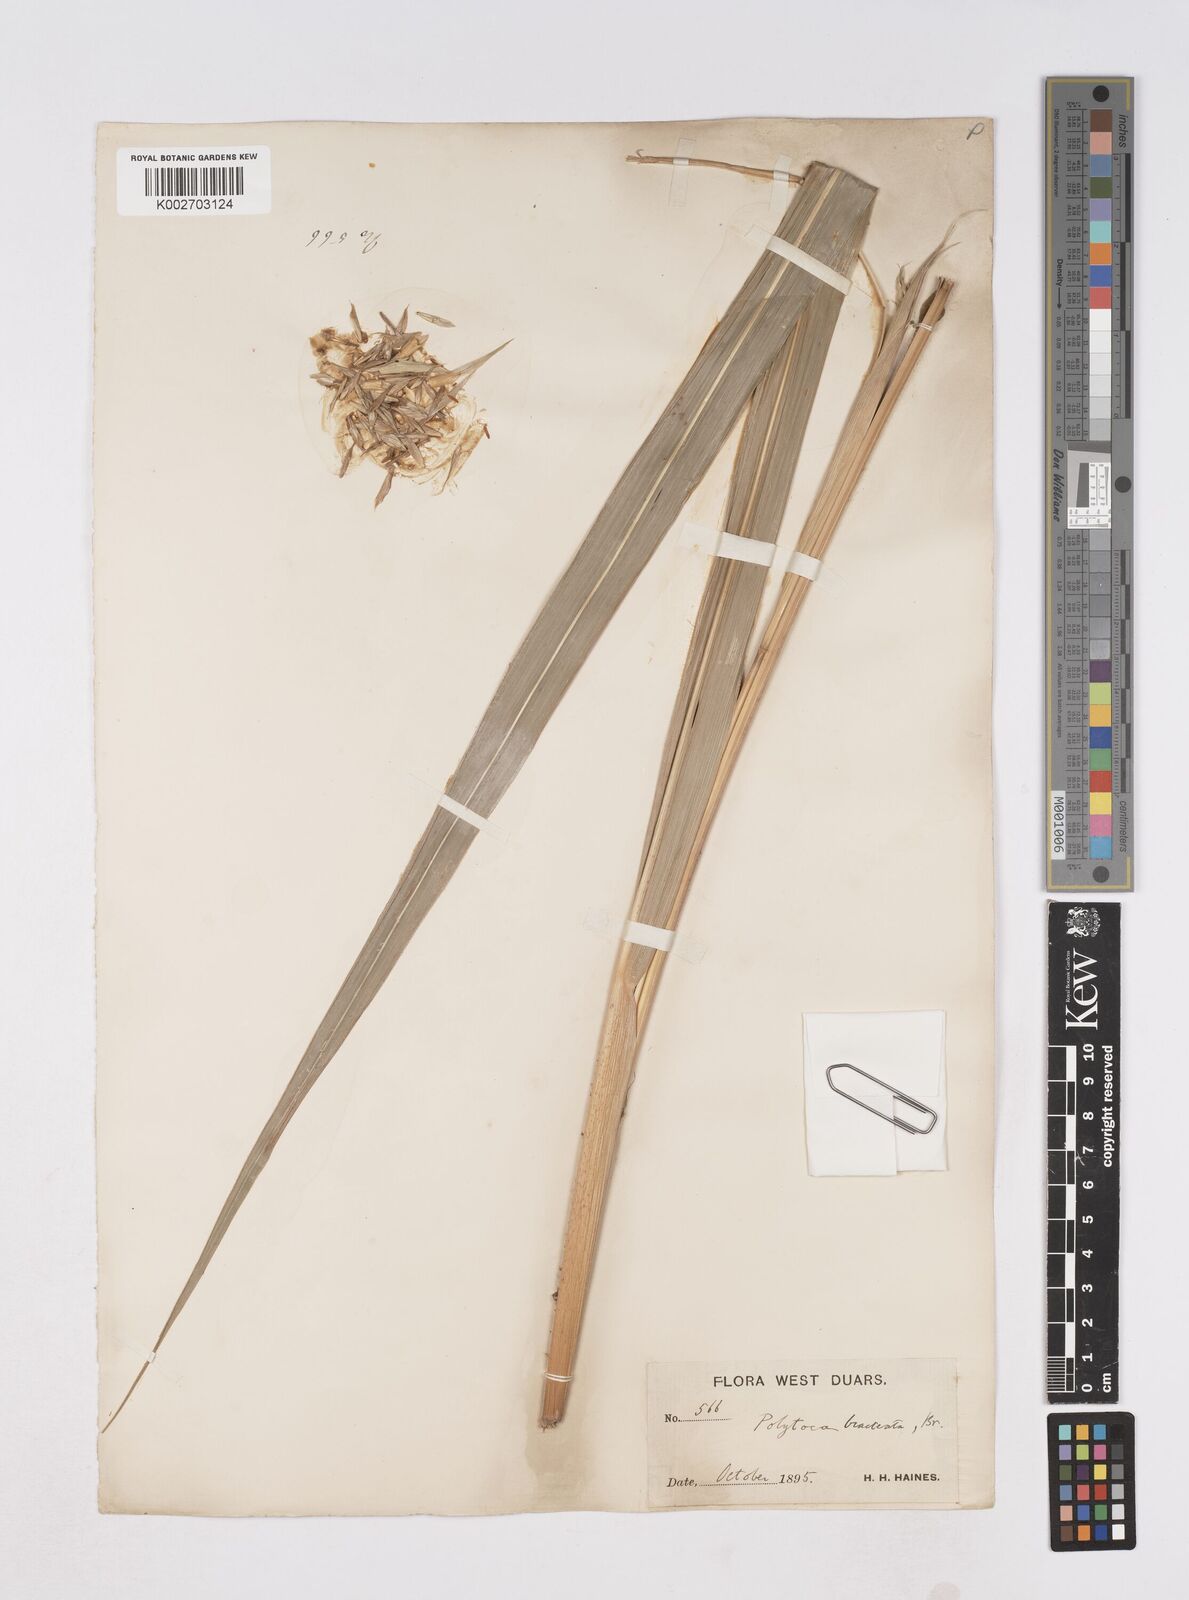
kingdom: Plantae
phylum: Tracheophyta
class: Liliopsida
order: Poales
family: Poaceae
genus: Polytoca
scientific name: Polytoca digitata
